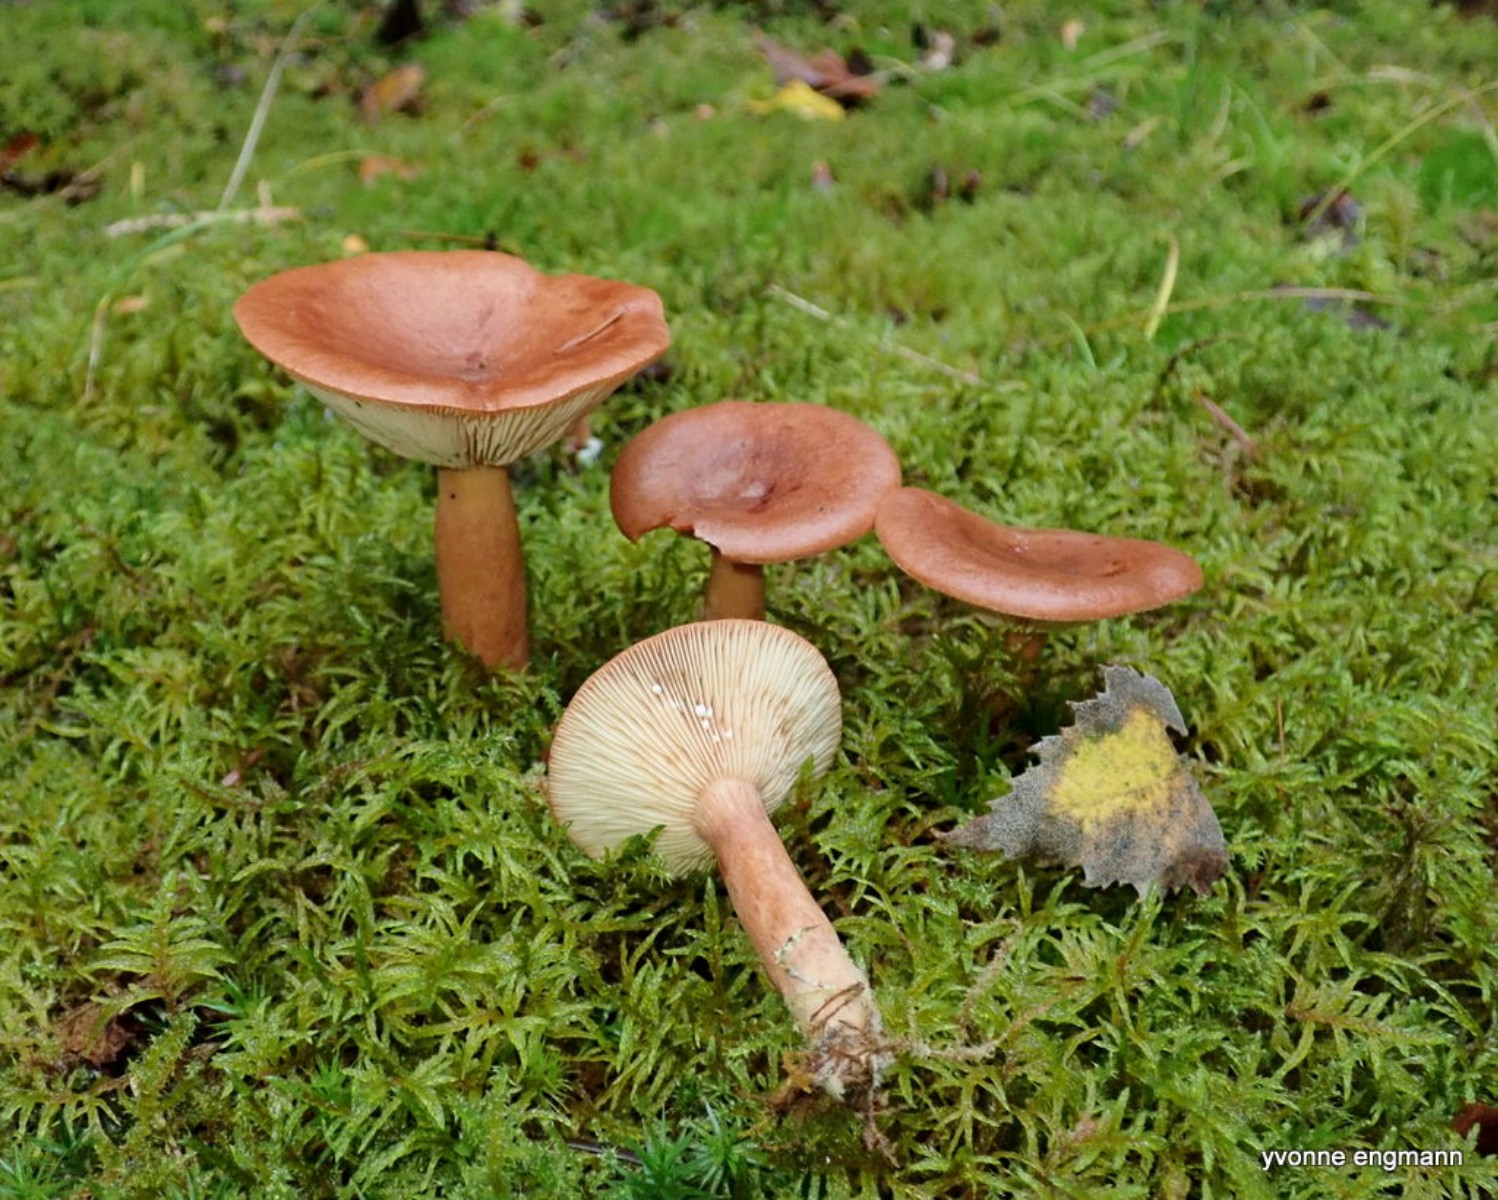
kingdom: Fungi
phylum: Basidiomycota
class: Agaricomycetes
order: Russulales
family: Russulaceae
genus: Lactarius
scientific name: Lactarius rufus
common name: rødbrun mælkehat
